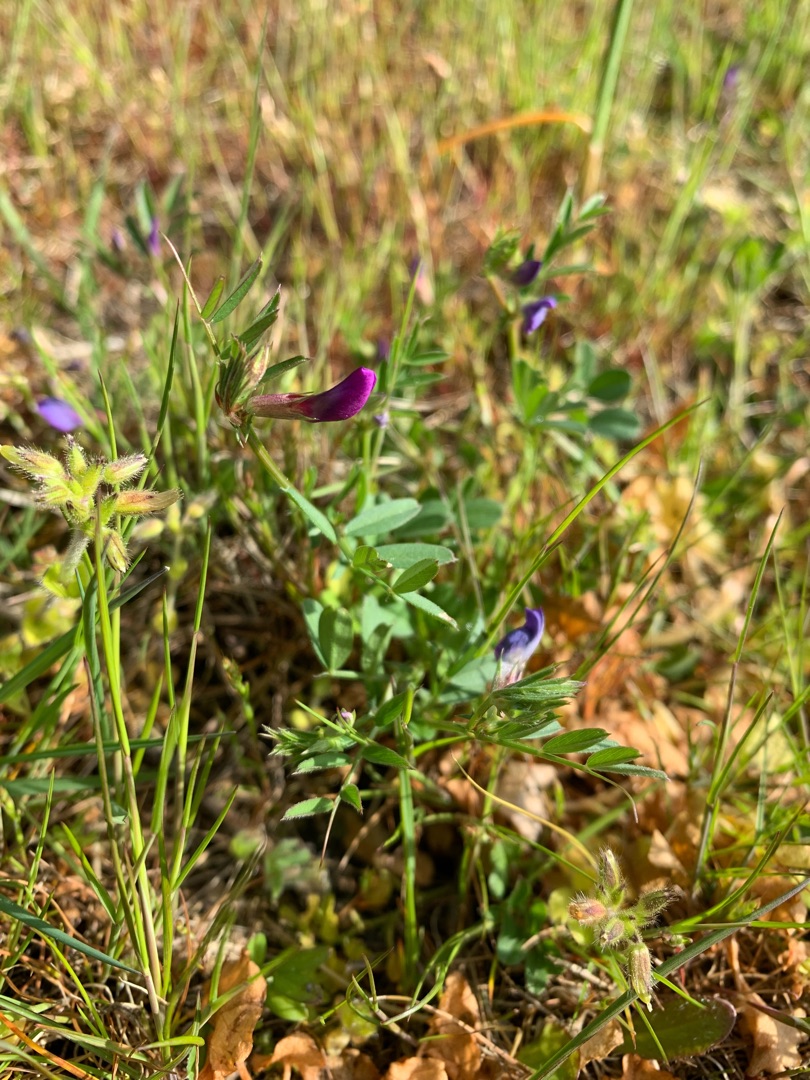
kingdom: Plantae
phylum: Tracheophyta
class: Magnoliopsida
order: Fabales
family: Fabaceae
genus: Vicia
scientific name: Vicia sativa
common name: Foder-vikke
